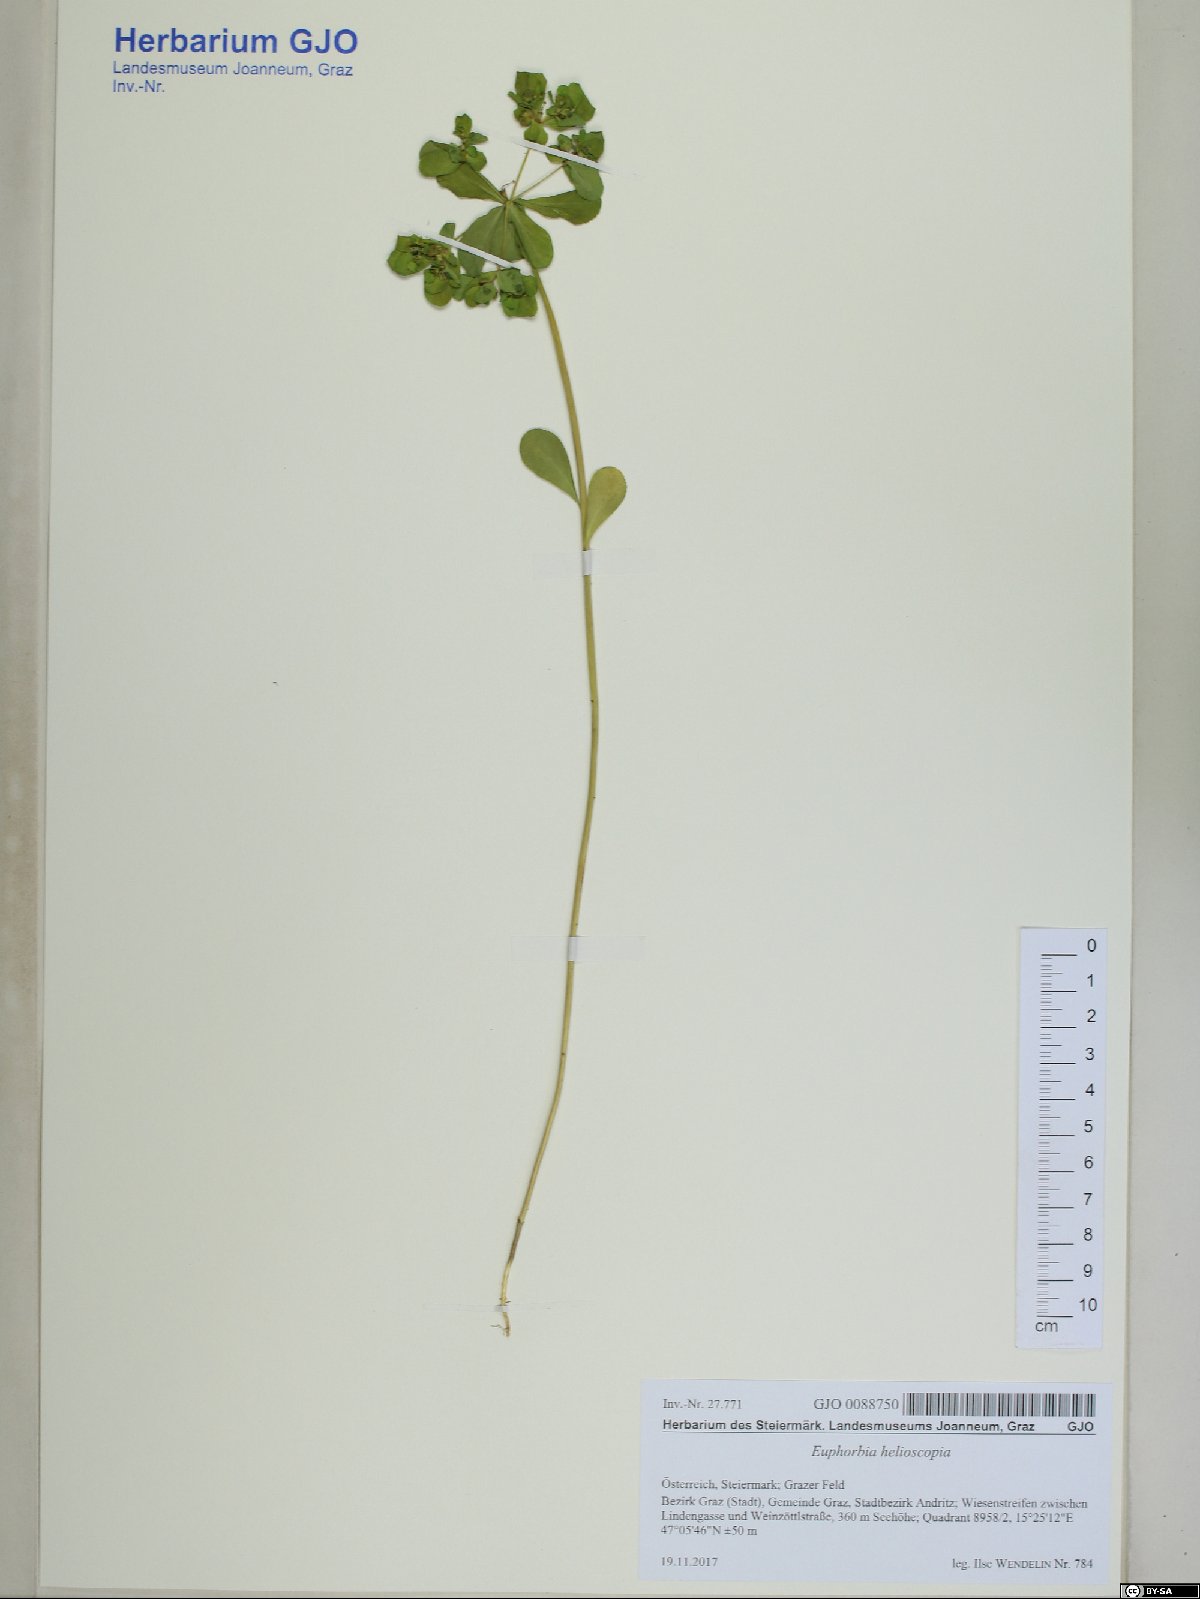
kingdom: Plantae
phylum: Tracheophyta
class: Magnoliopsida
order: Malpighiales
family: Euphorbiaceae
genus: Euphorbia
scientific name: Euphorbia helioscopia
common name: Sun spurge
